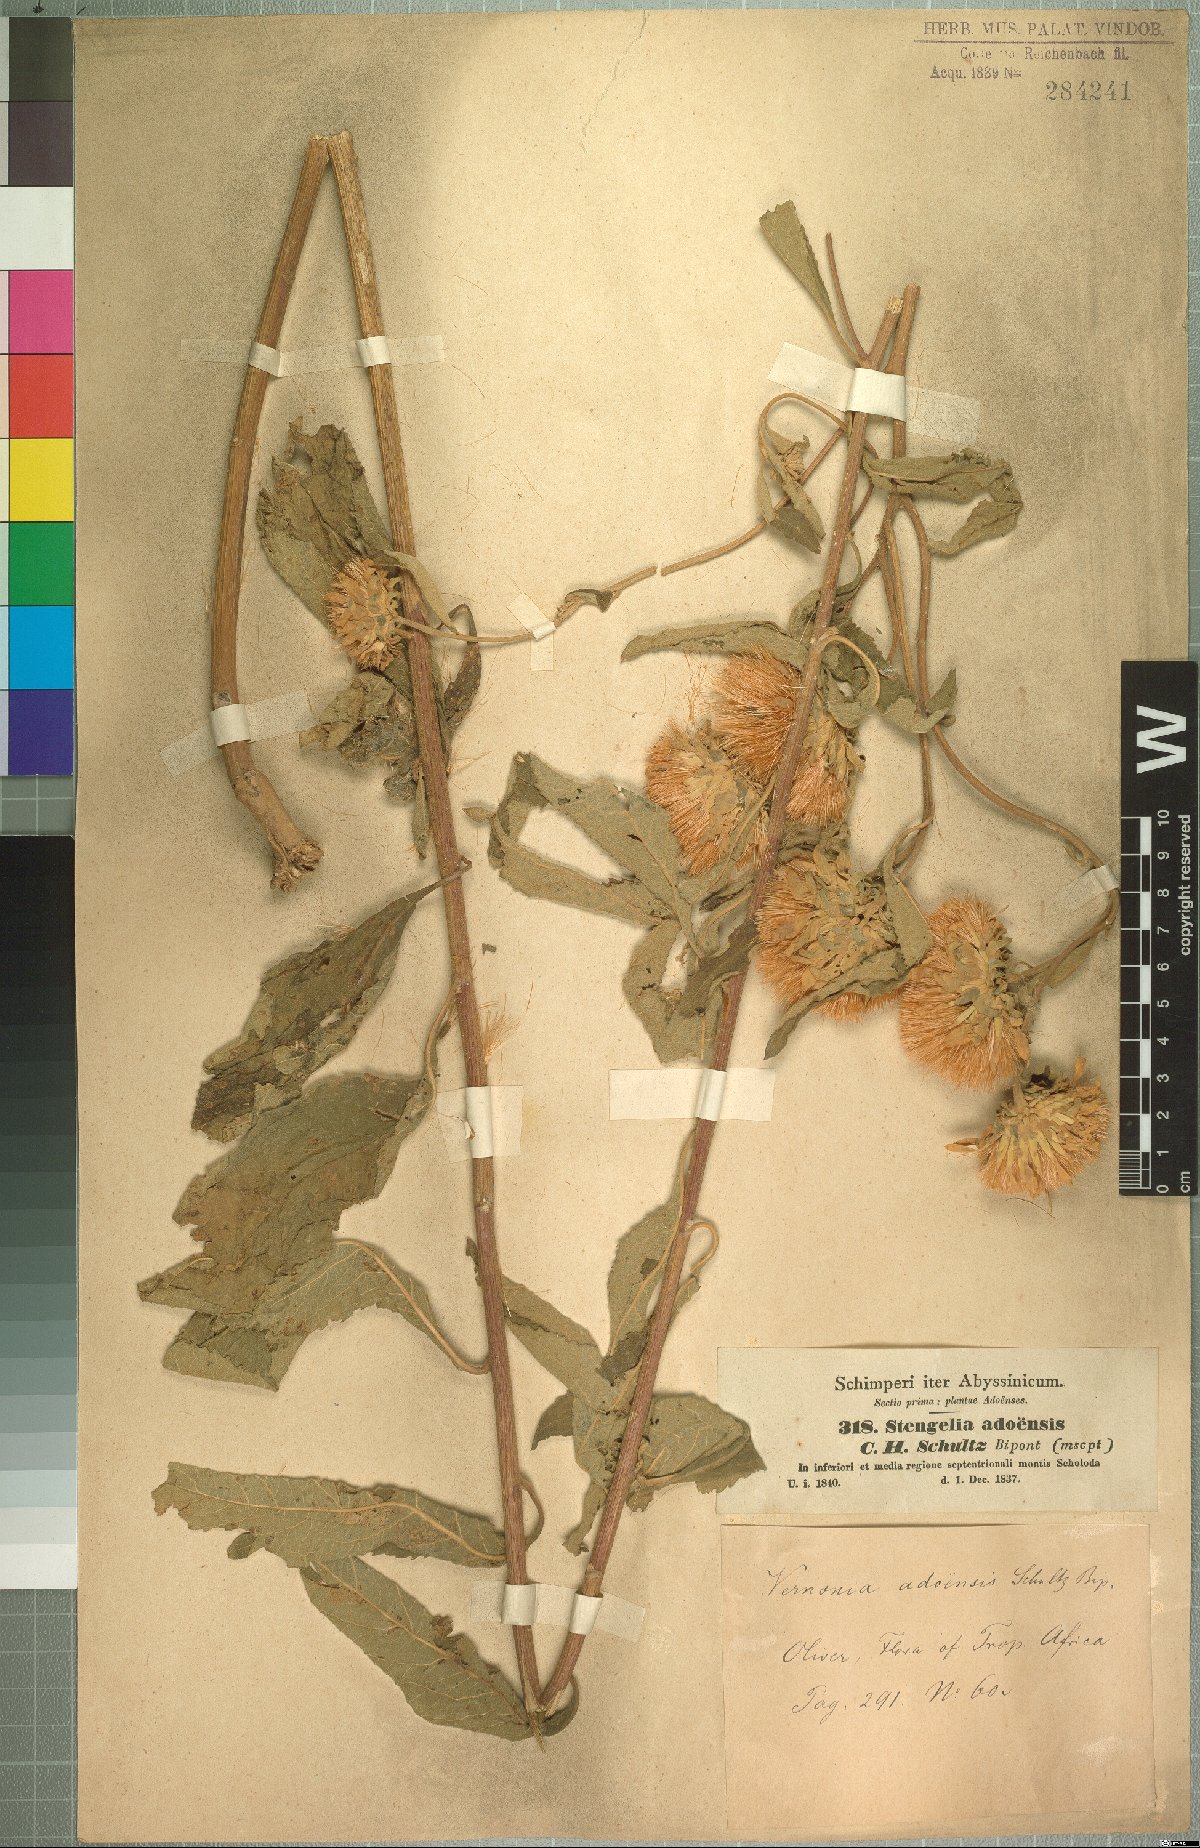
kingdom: Plantae
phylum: Tracheophyta
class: Magnoliopsida
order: Asterales
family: Asteraceae
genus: Baccharoides
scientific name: Baccharoides adoensis
